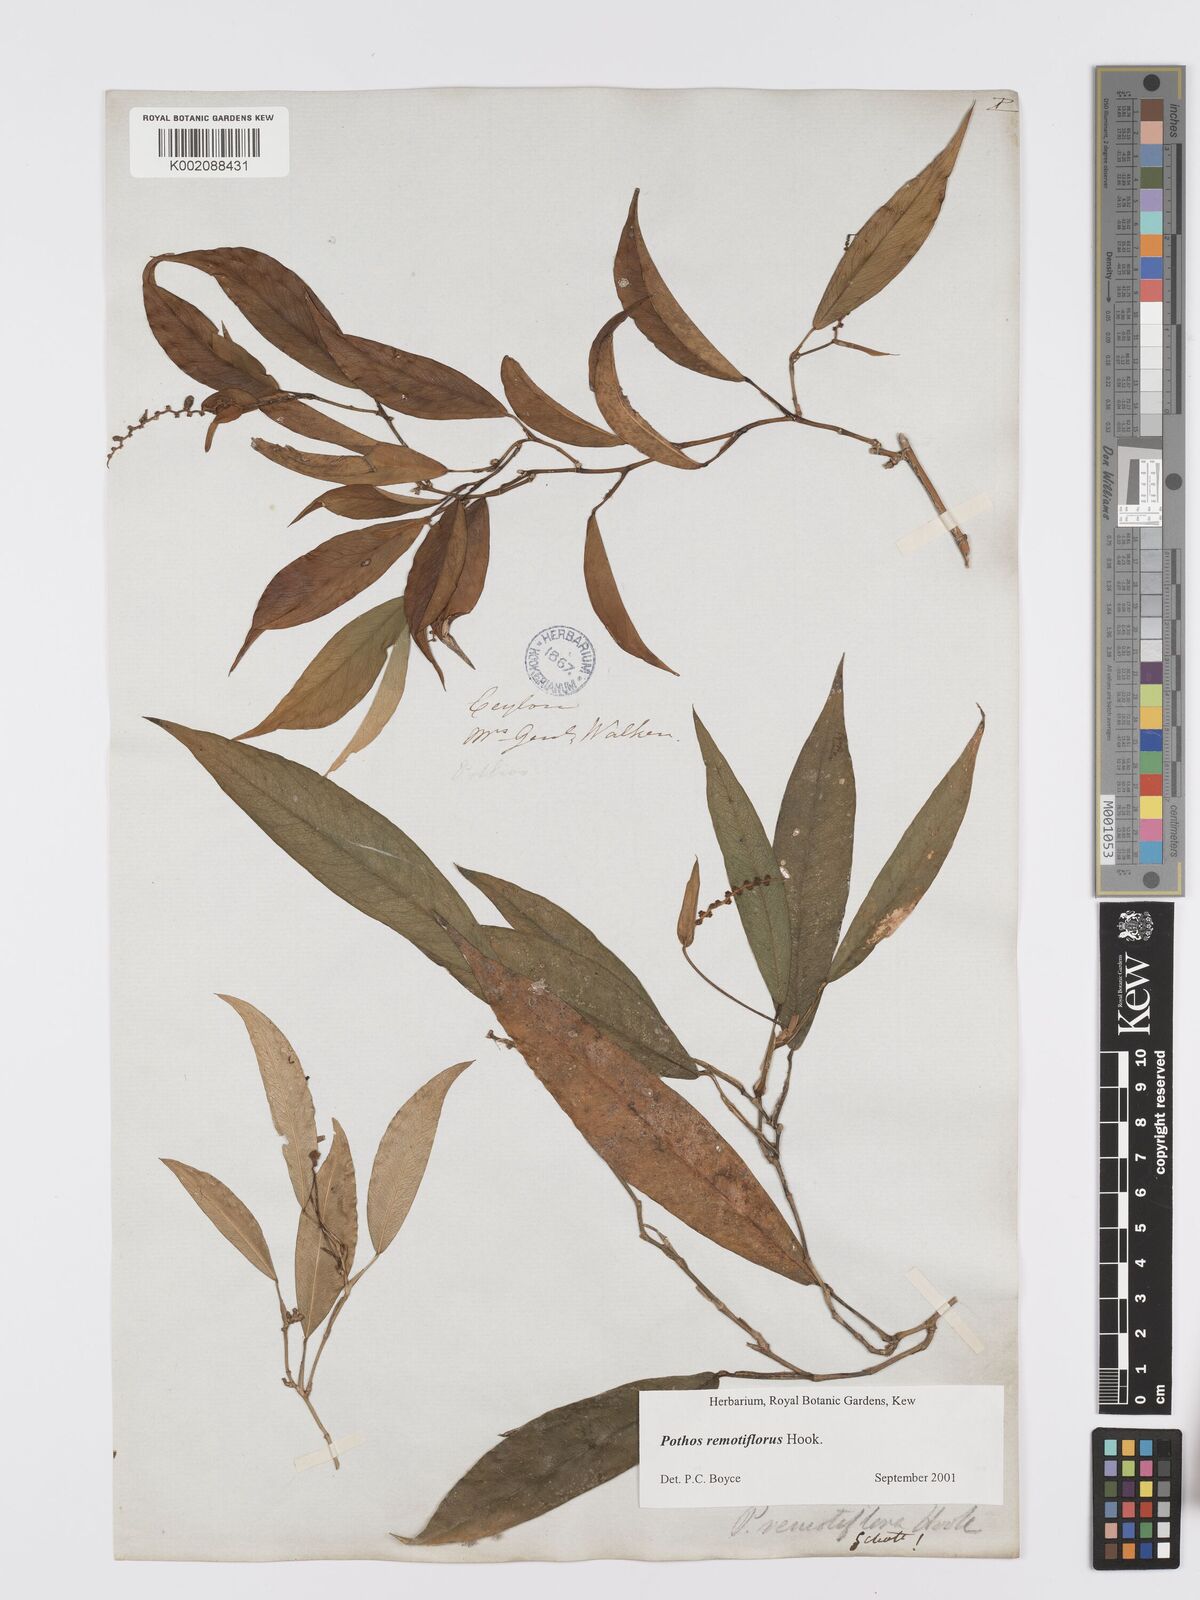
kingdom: Plantae
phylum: Tracheophyta
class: Liliopsida
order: Alismatales
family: Araceae
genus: Pothos
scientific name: Pothos remotiflorus
